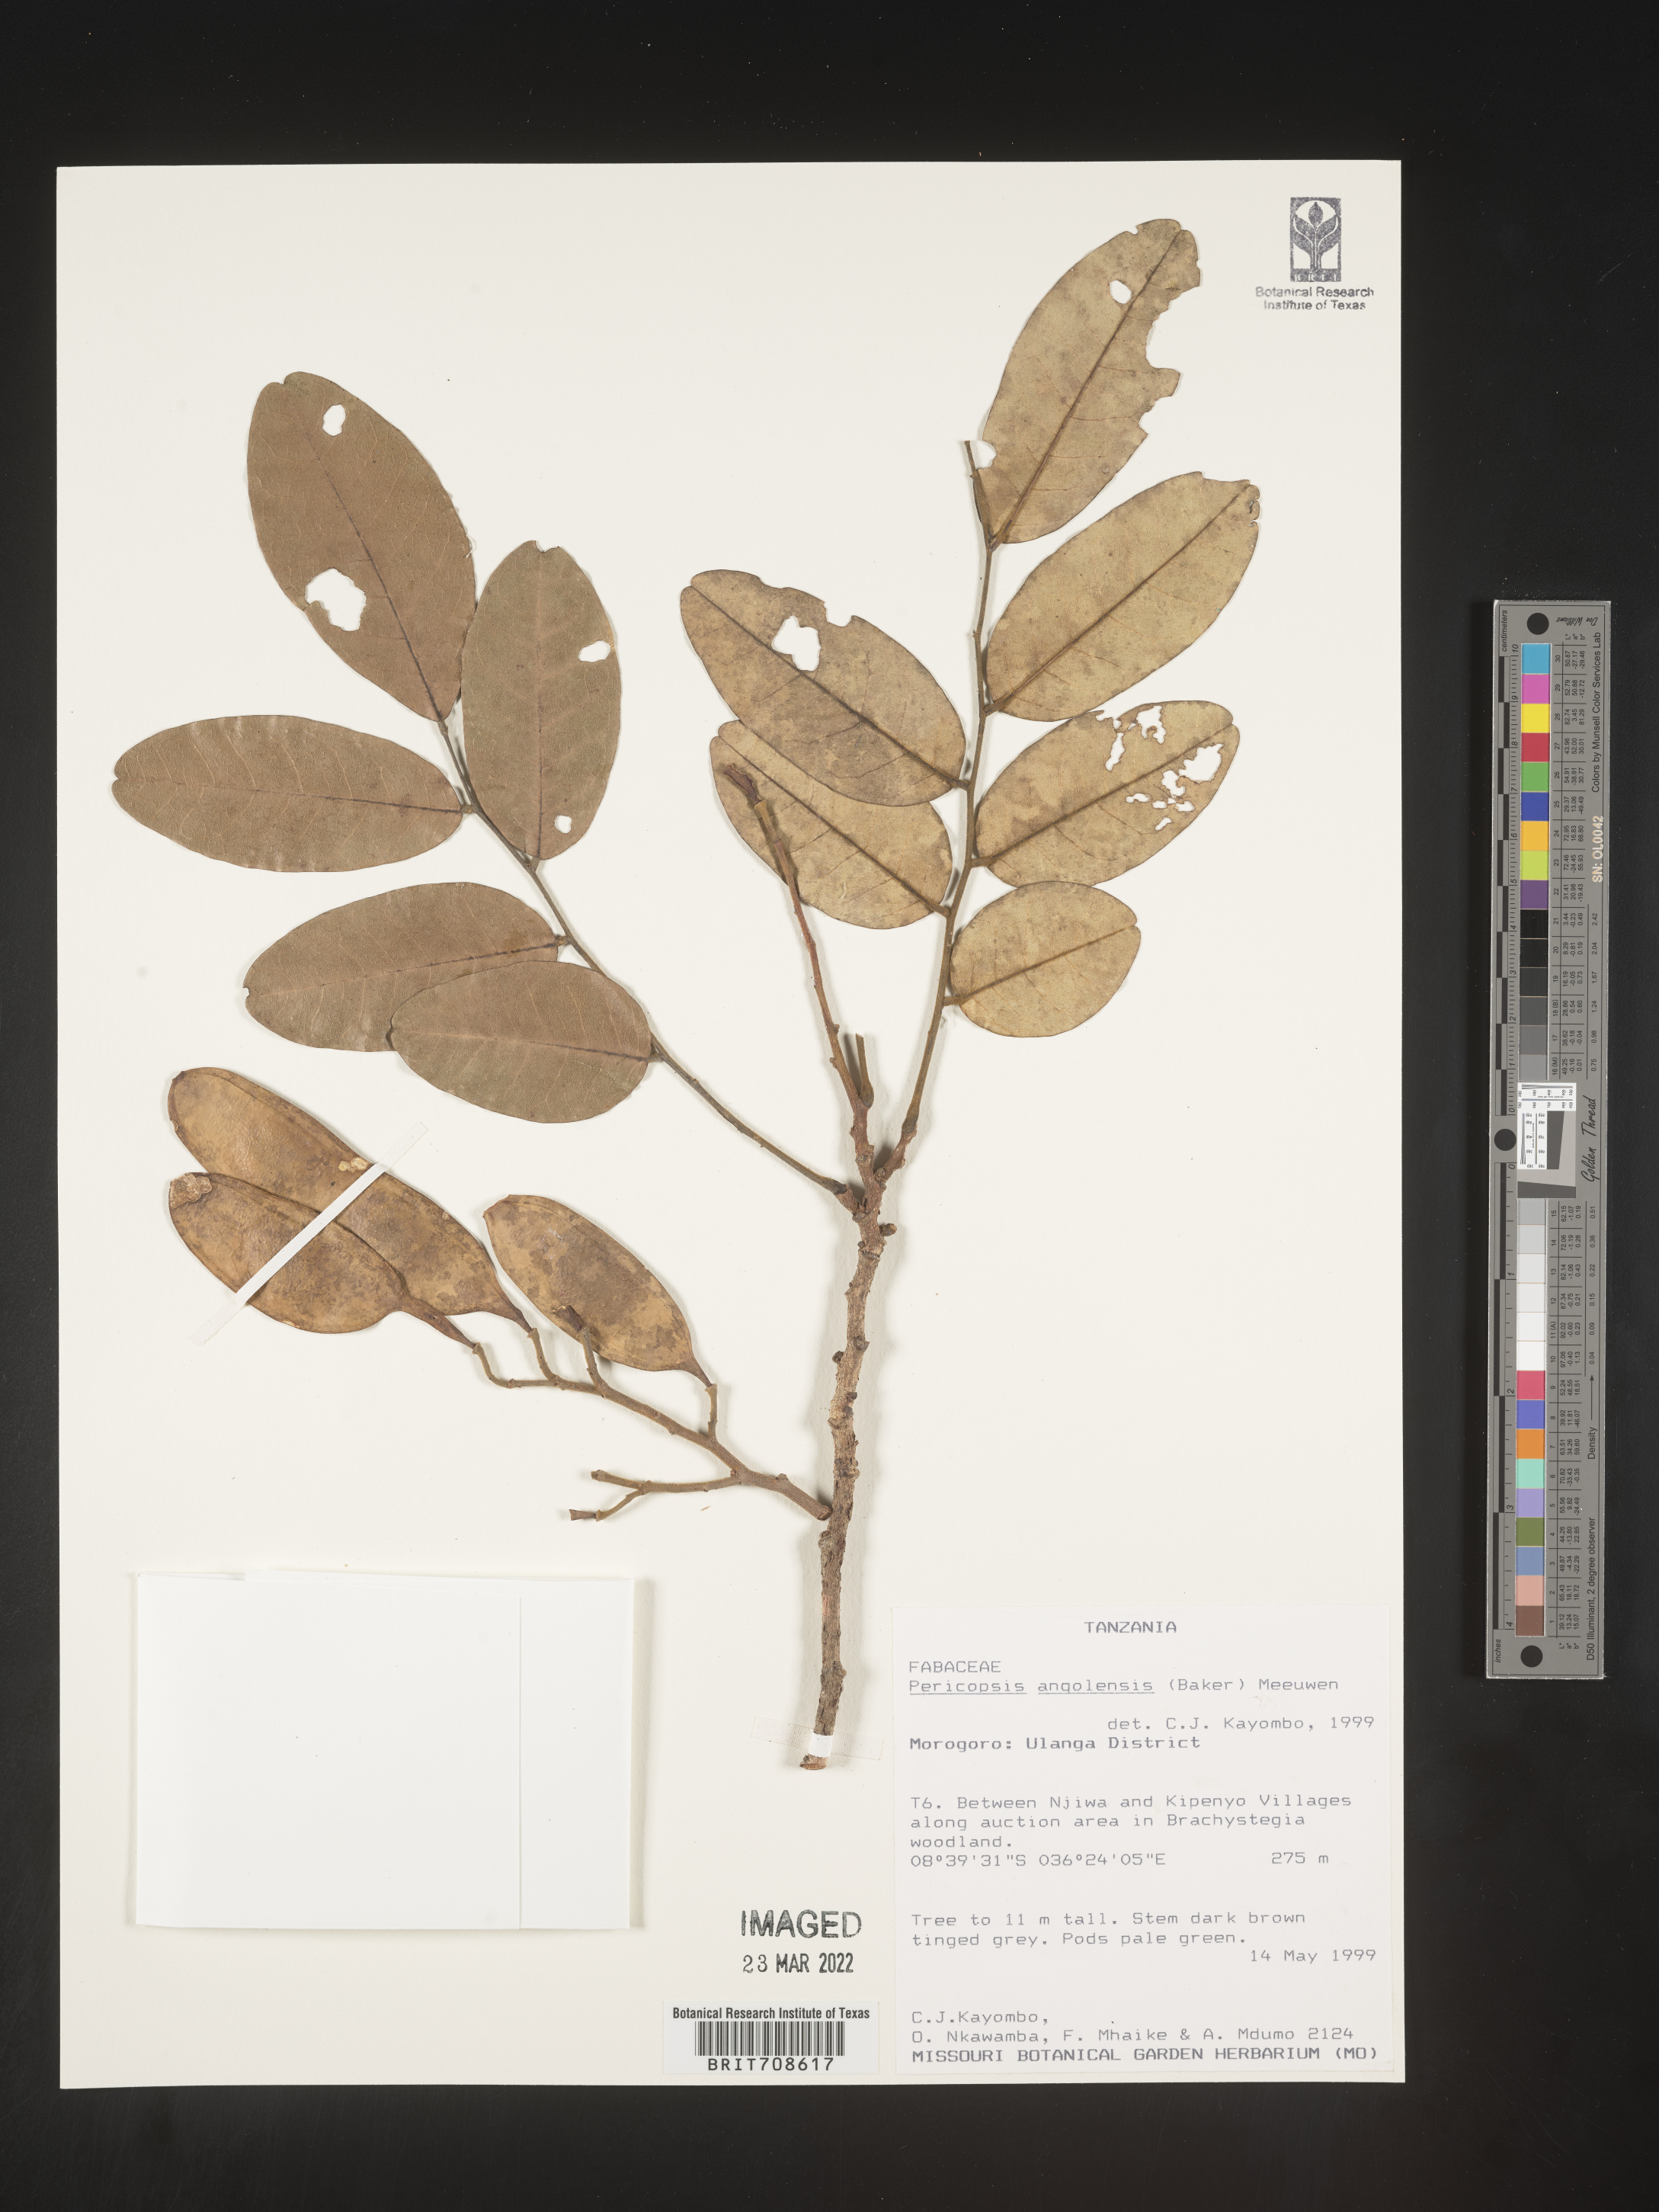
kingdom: Plantae
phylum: Tracheophyta
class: Magnoliopsida
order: Fabales
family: Fabaceae
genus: Pericopsis
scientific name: Pericopsis
